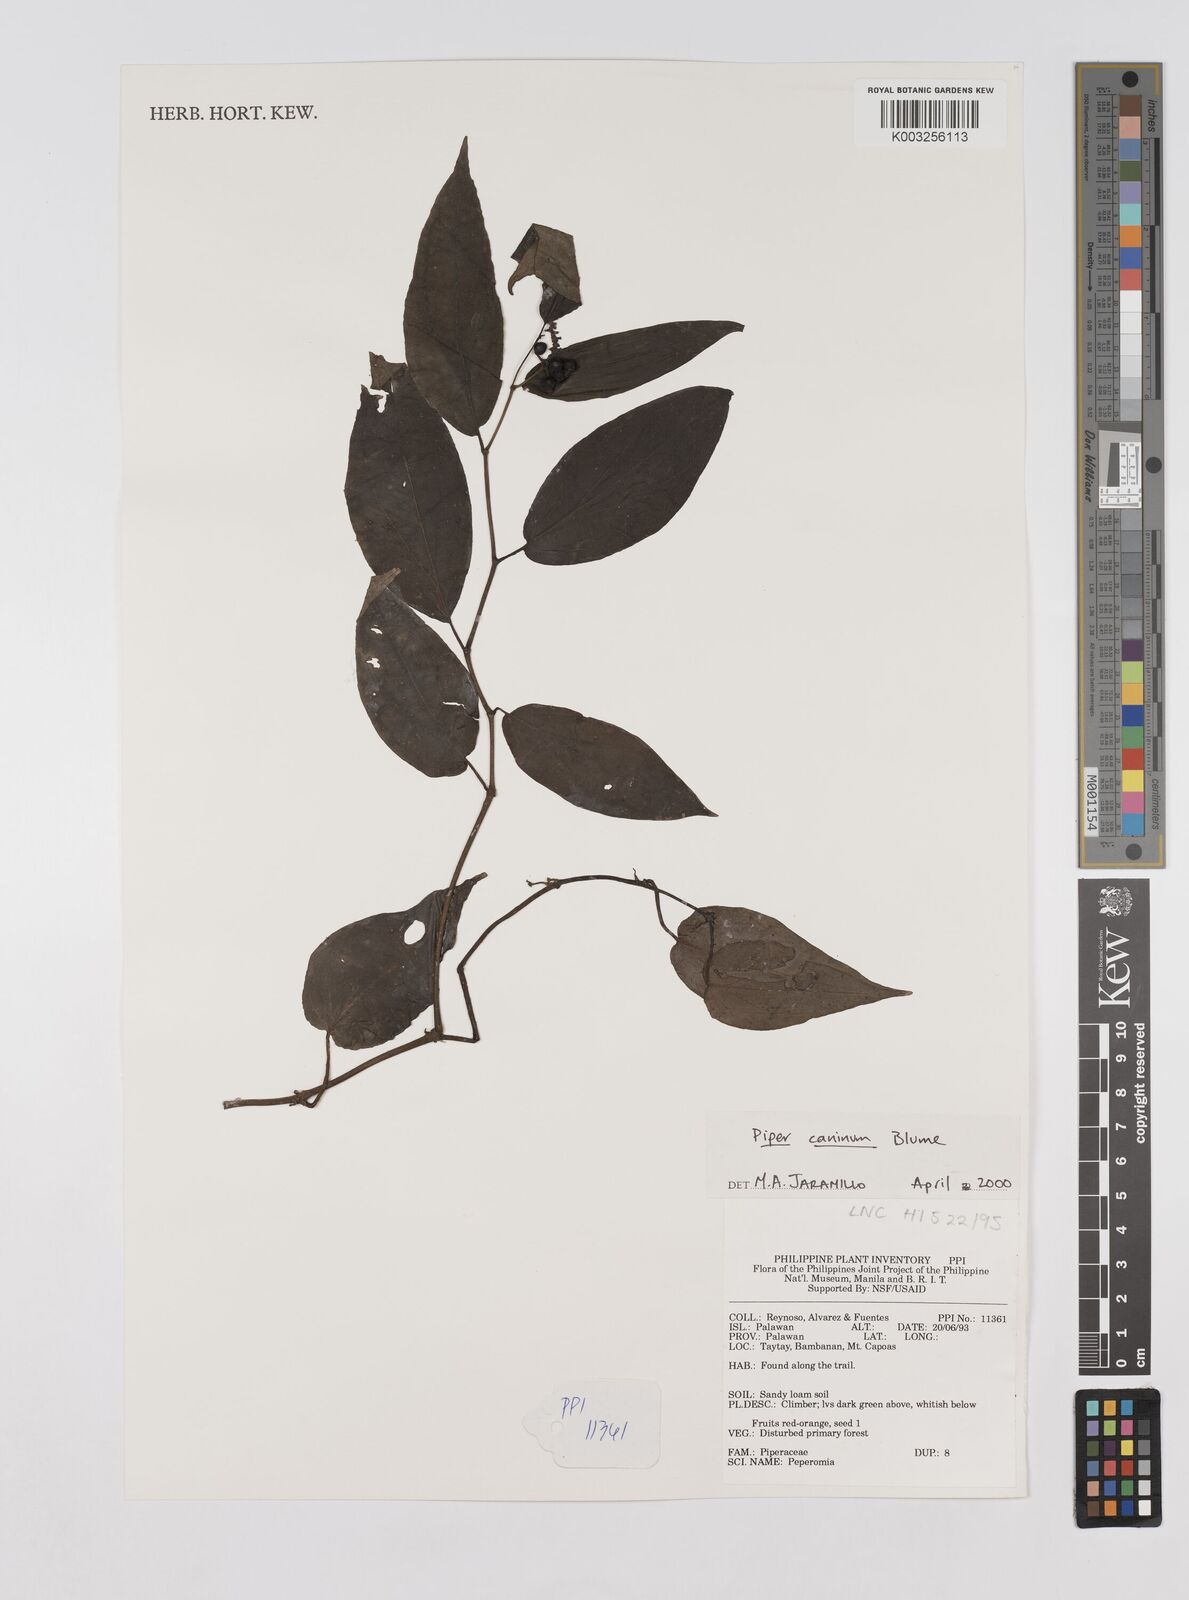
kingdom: Plantae
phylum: Tracheophyta
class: Magnoliopsida
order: Piperales
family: Piperaceae
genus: Piper
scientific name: Piper lanatum
